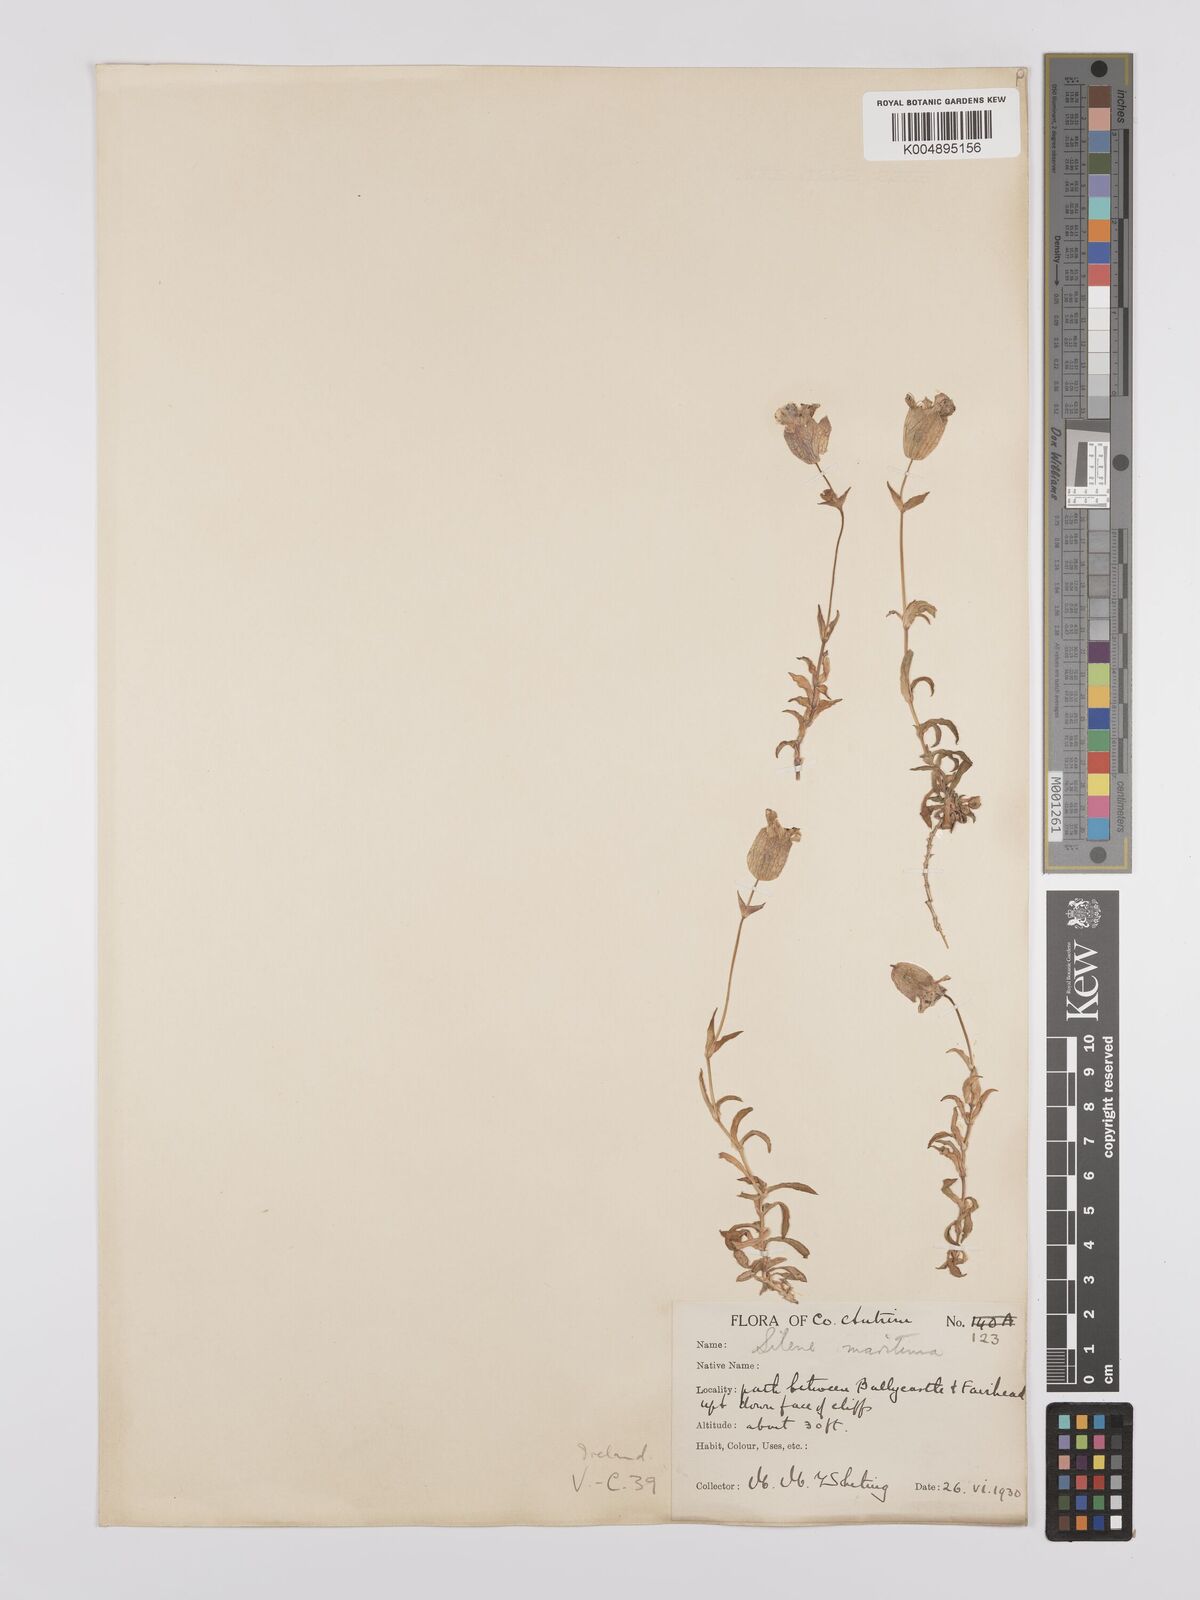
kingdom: Plantae
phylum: Tracheophyta
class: Magnoliopsida
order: Caryophyllales
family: Caryophyllaceae
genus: Silene
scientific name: Silene uniflora
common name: Sea campion
